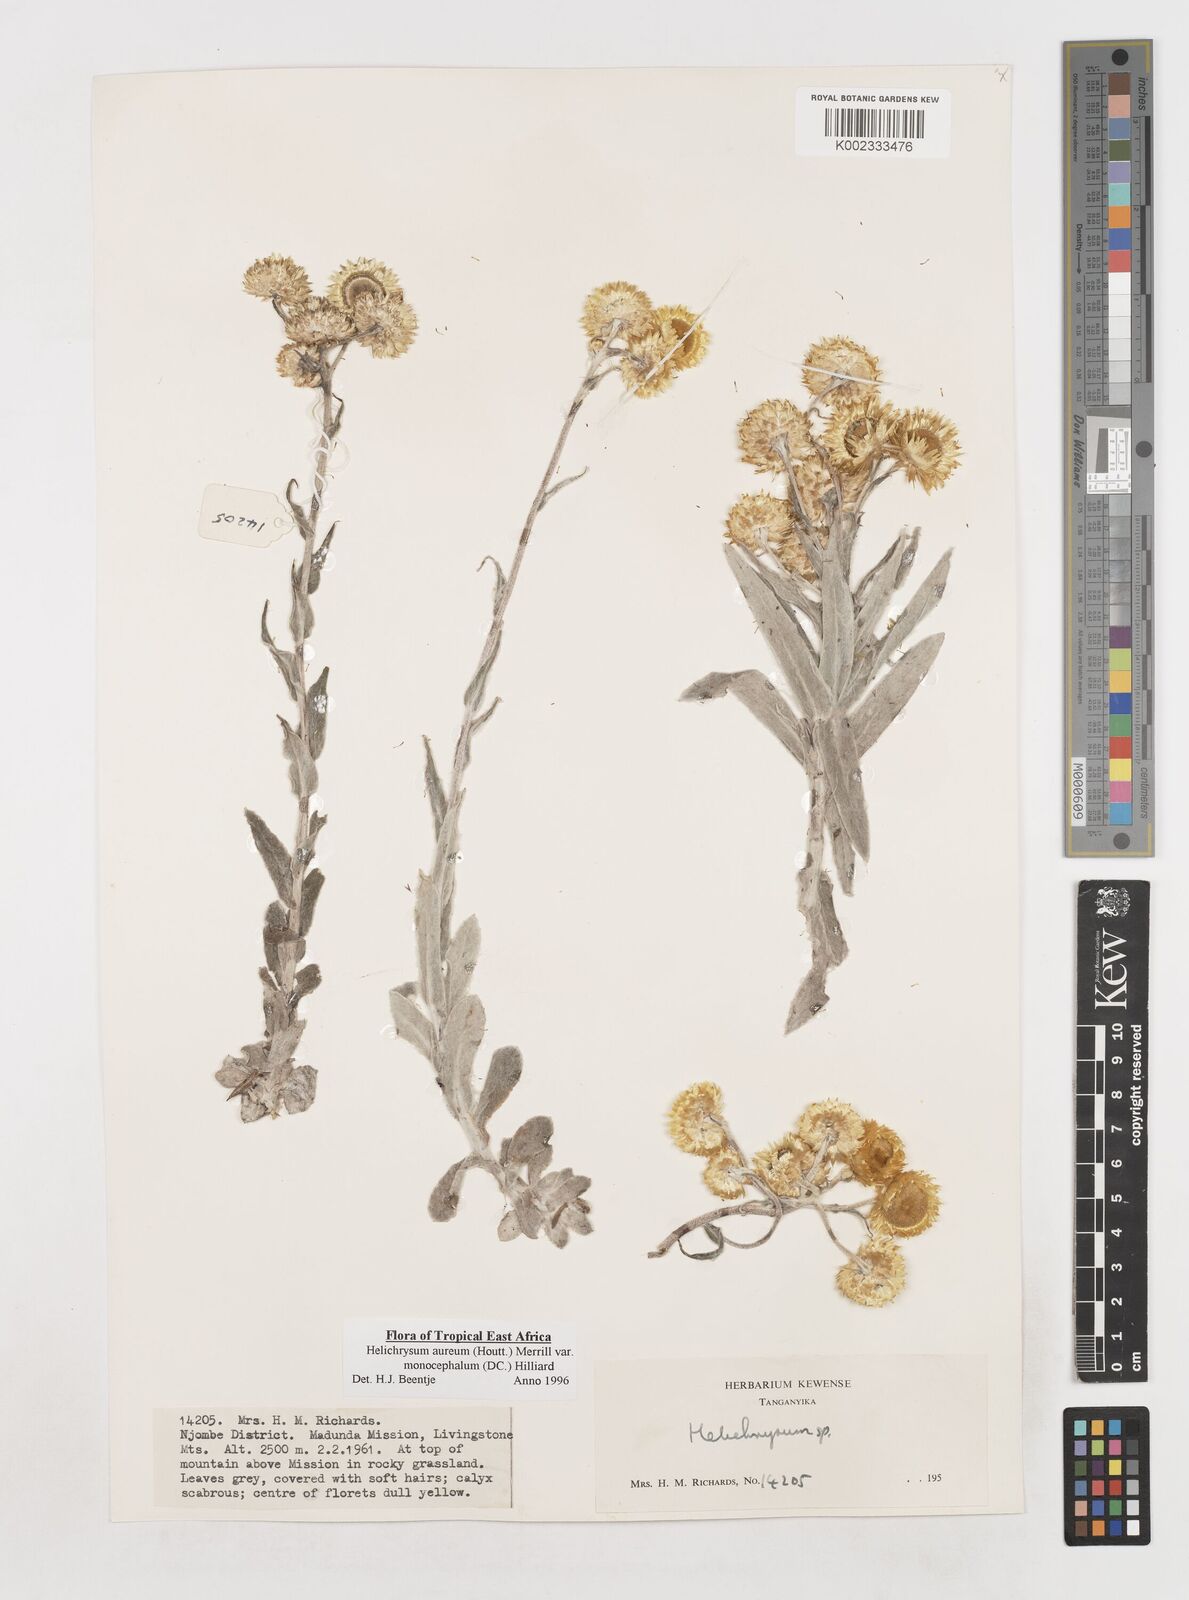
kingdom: Plantae
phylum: Tracheophyta
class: Magnoliopsida
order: Asterales
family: Asteraceae
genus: Helichrysum
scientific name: Helichrysum aureum
